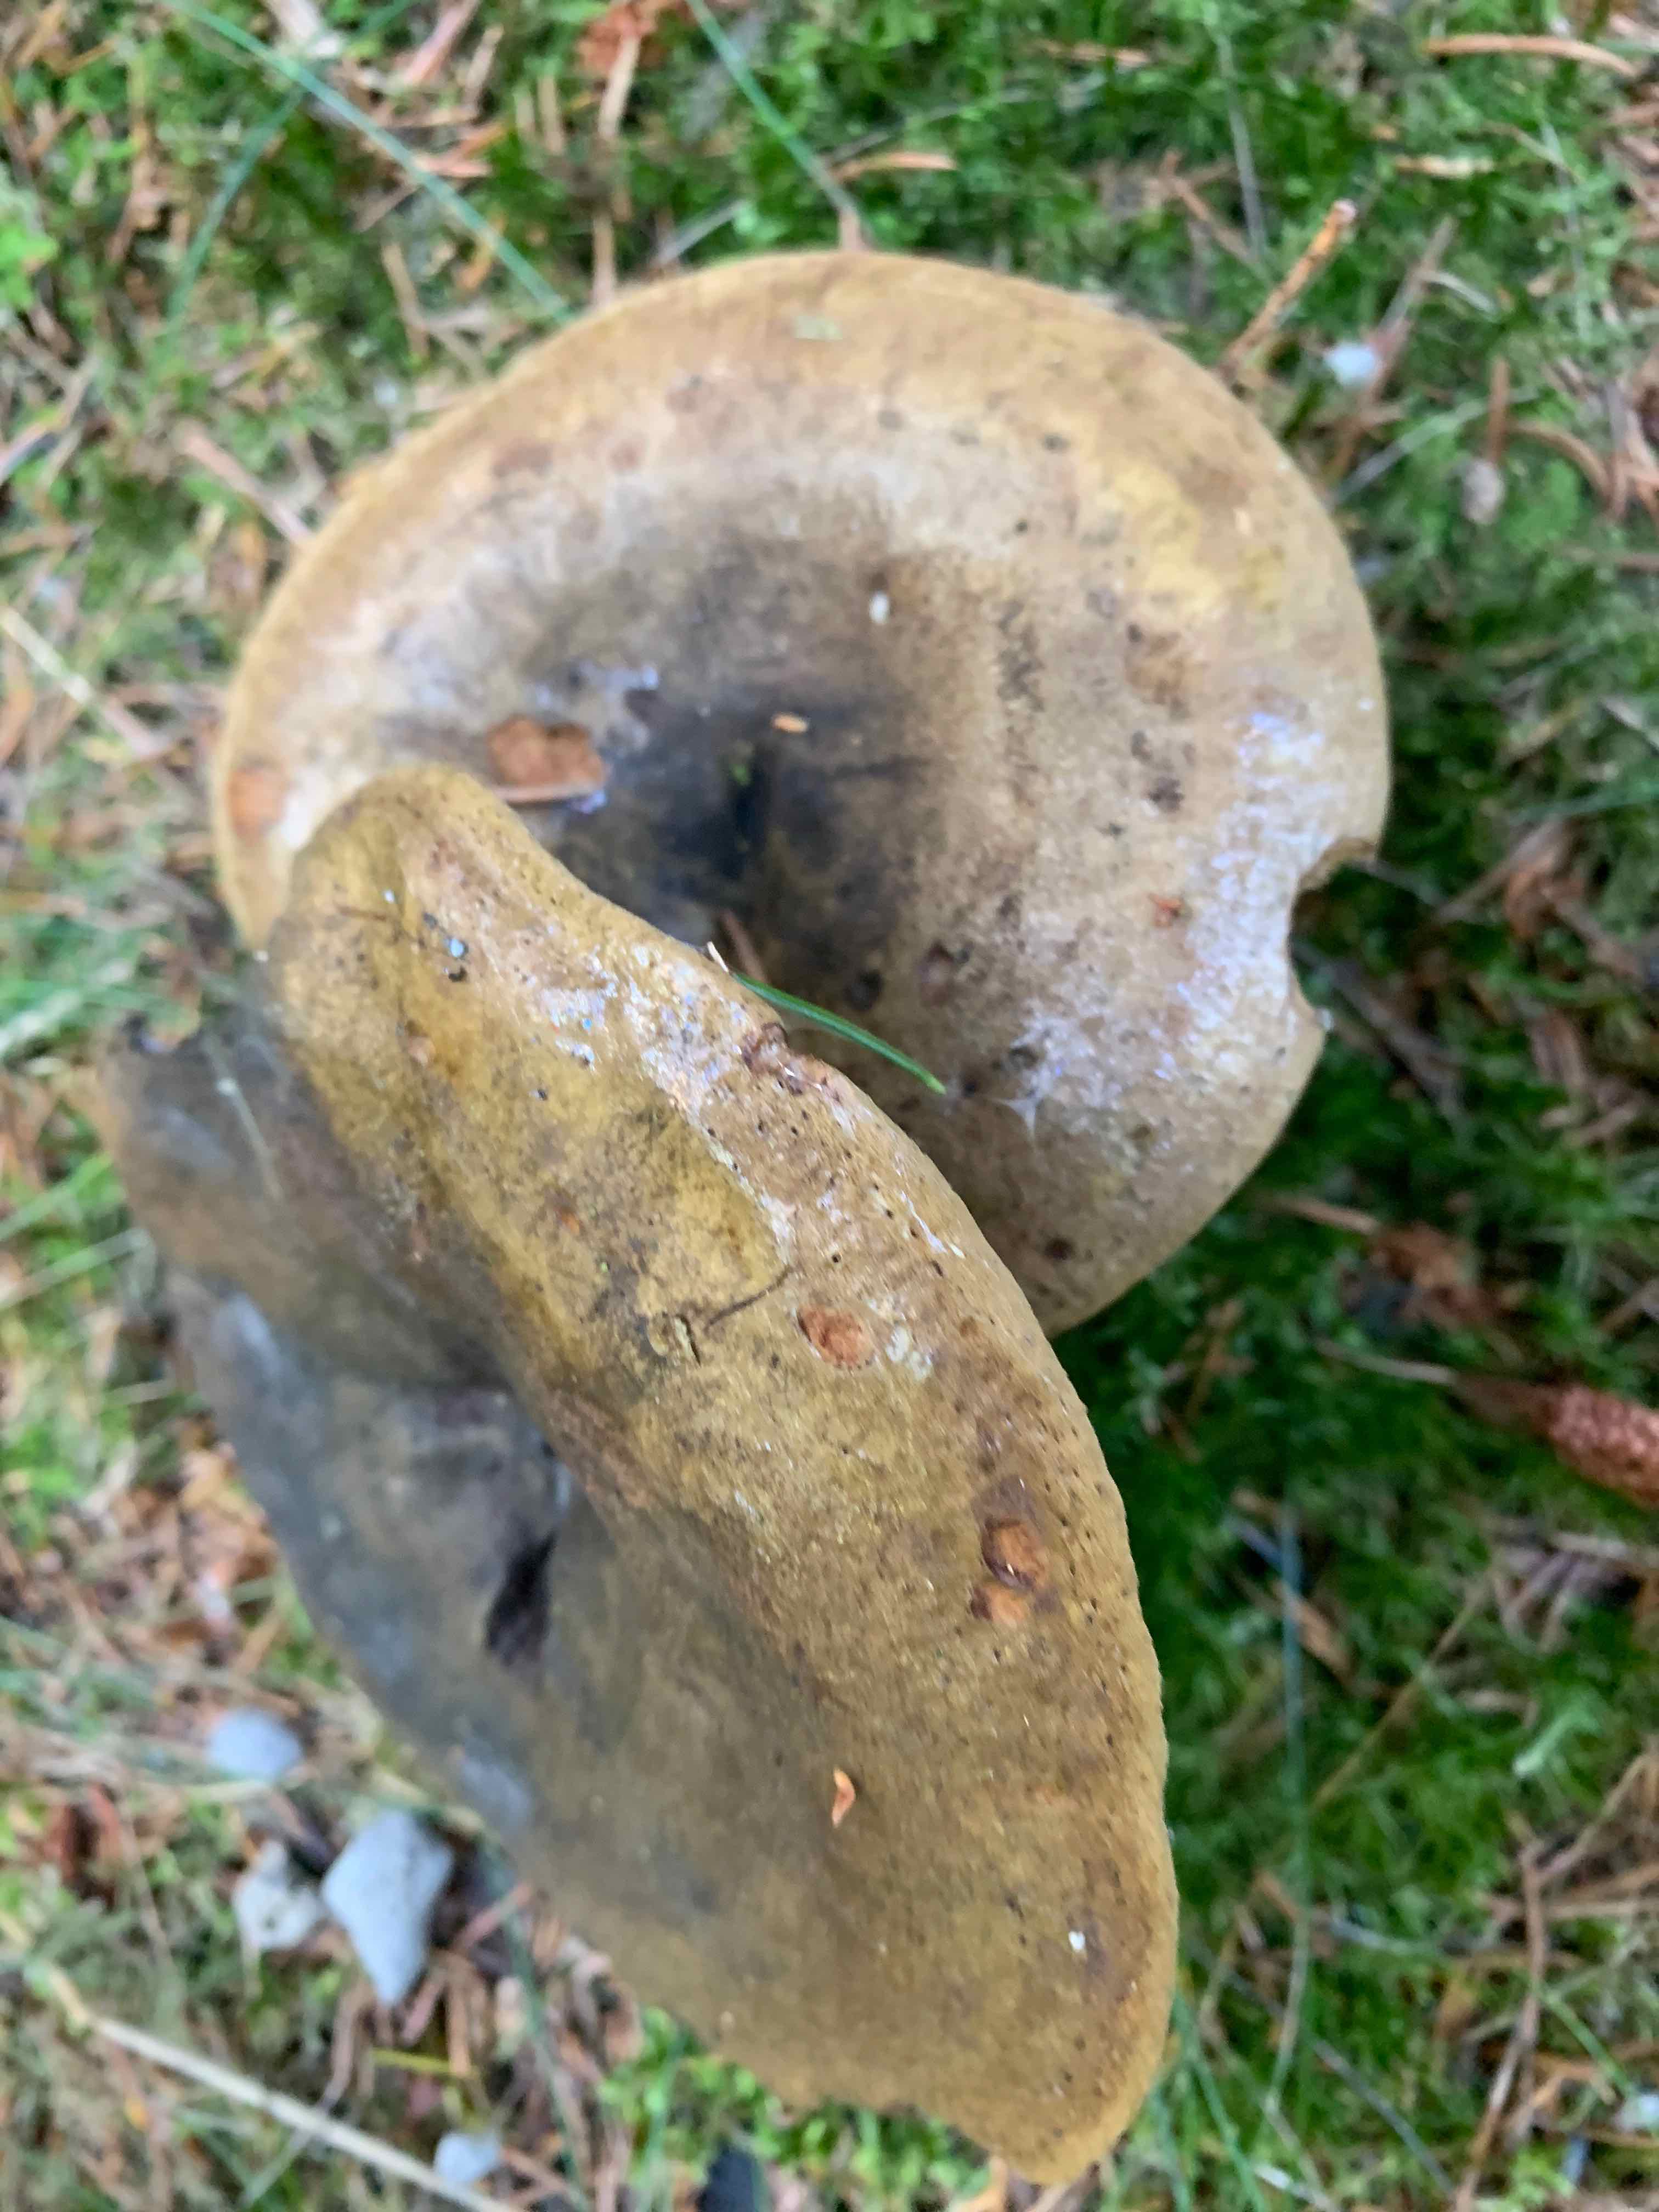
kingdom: Fungi
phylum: Basidiomycota
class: Agaricomycetes
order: Russulales
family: Russulaceae
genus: Lactarius
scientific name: Lactarius necator
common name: manddraber-mælkehat
